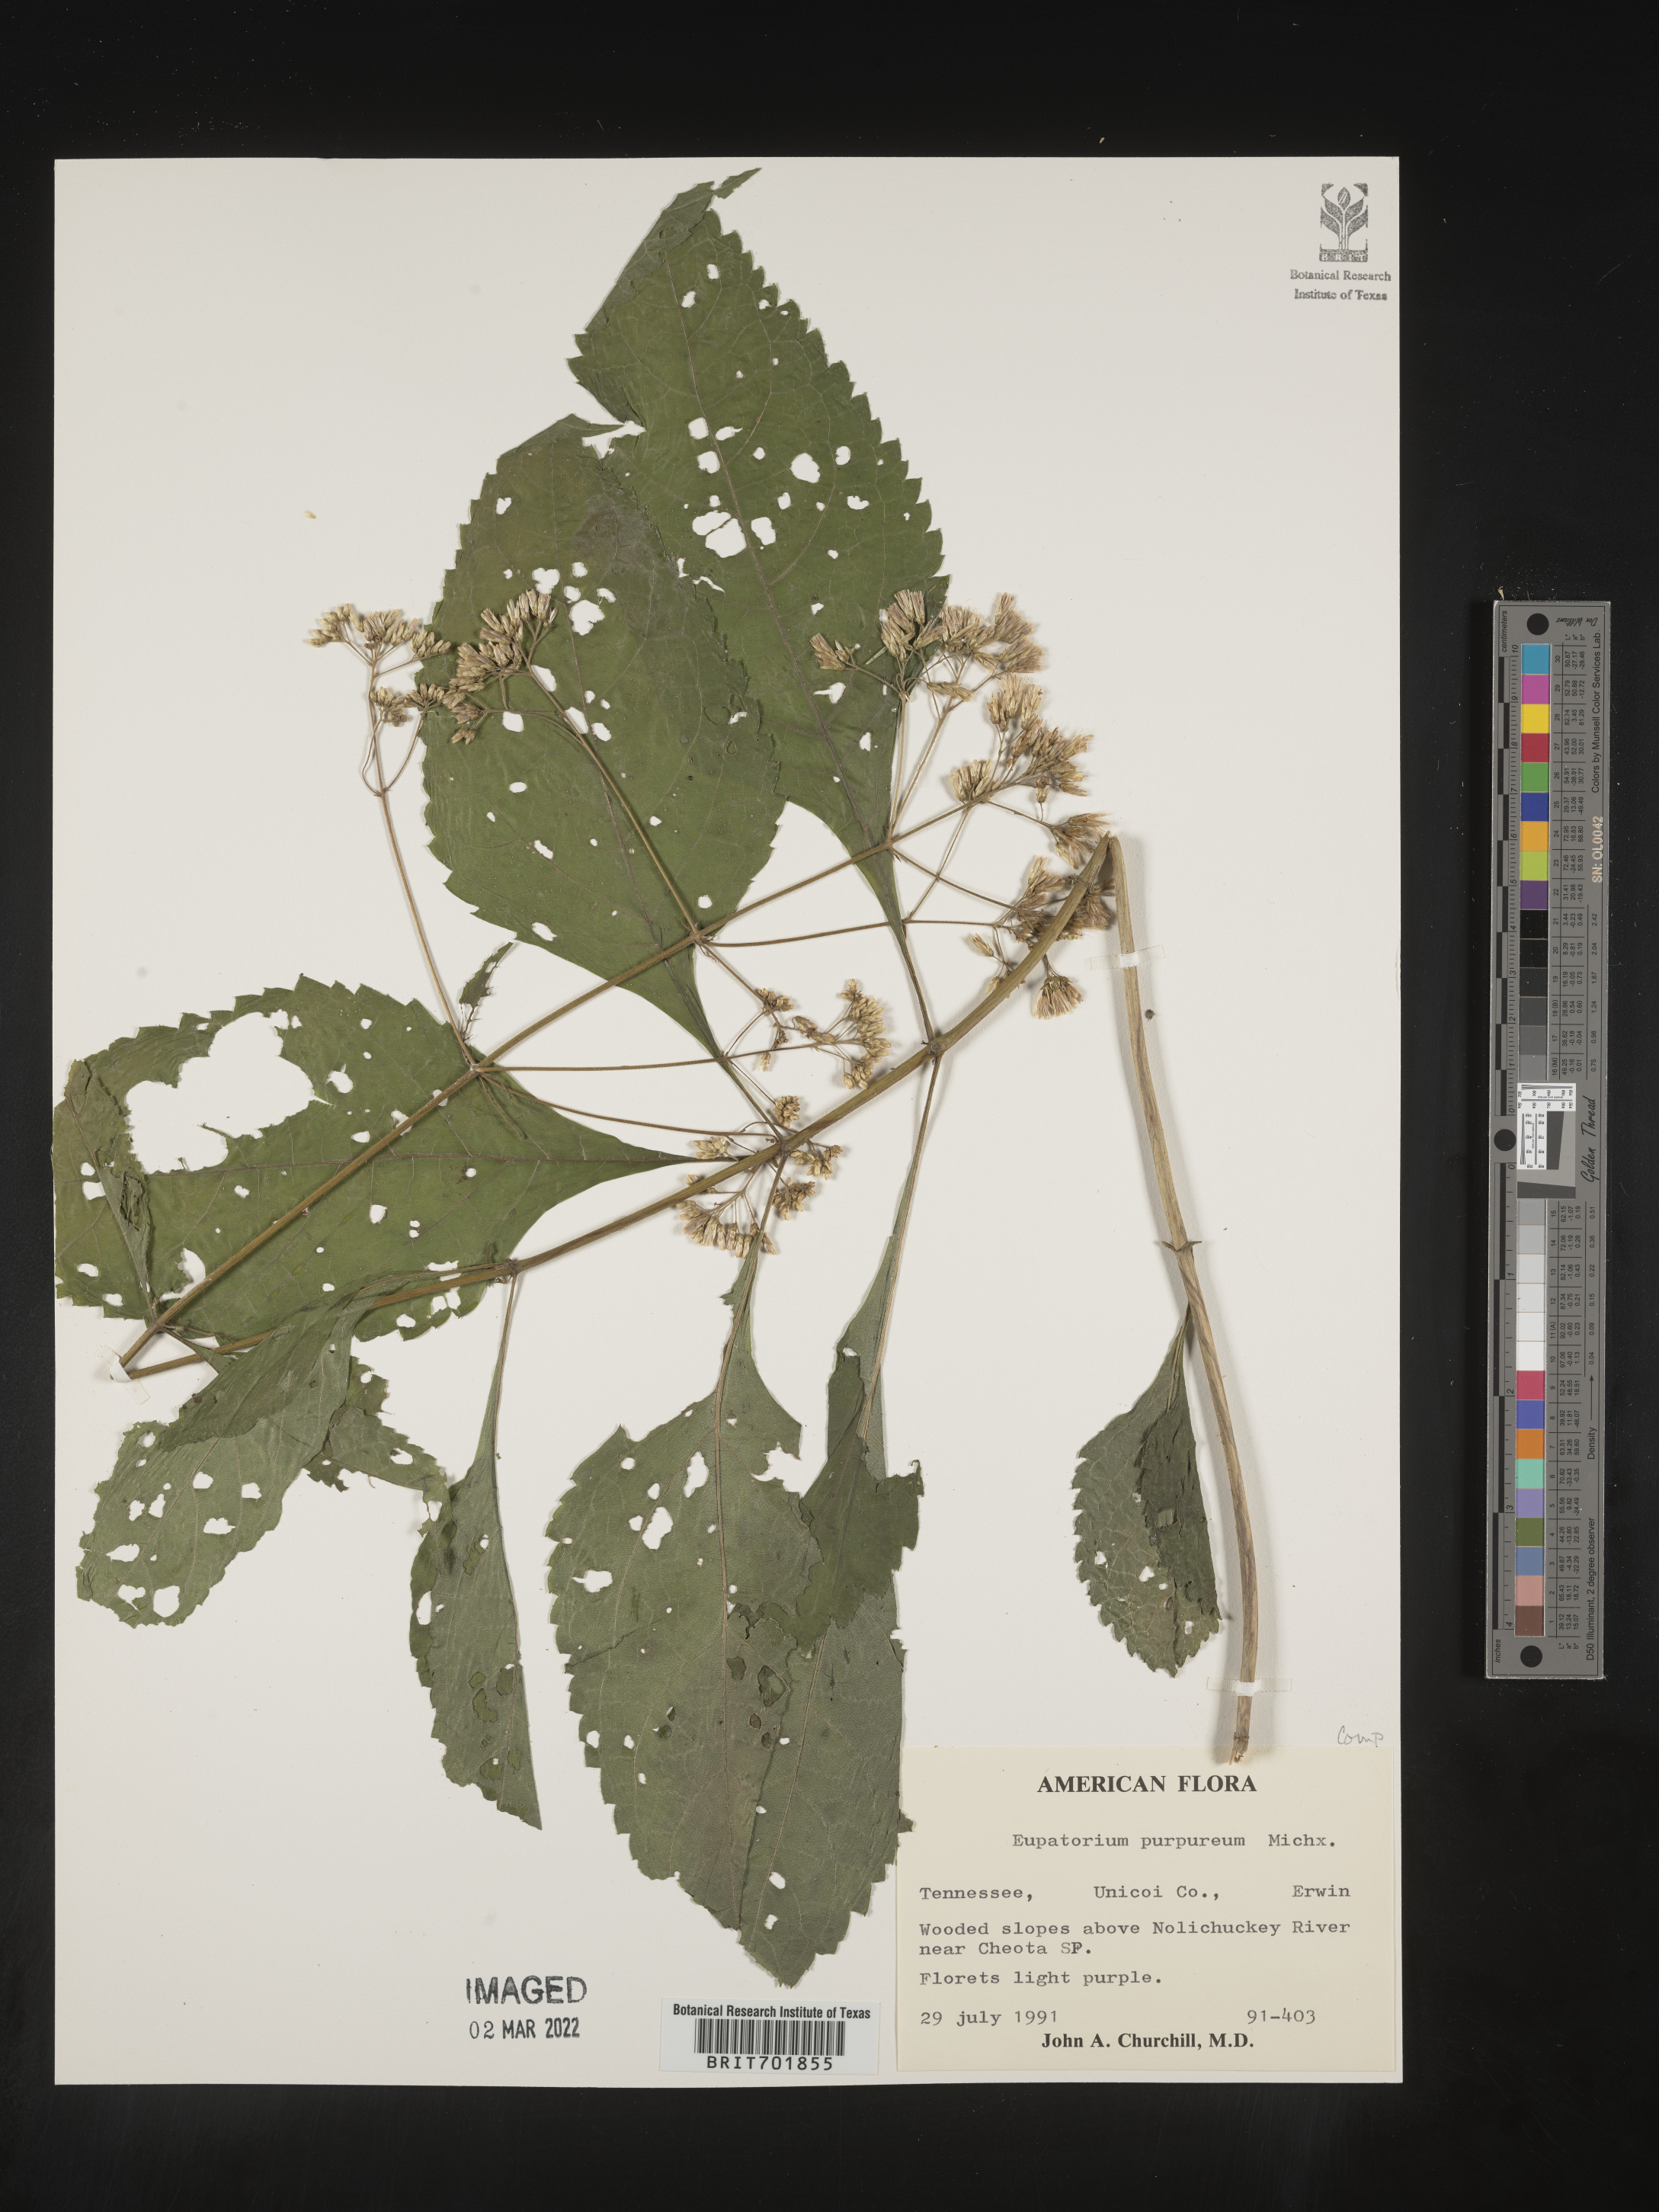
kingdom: Plantae
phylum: Tracheophyta
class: Magnoliopsida
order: Asterales
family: Asteraceae
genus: Eupatorium
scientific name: Eupatorium quaternum
